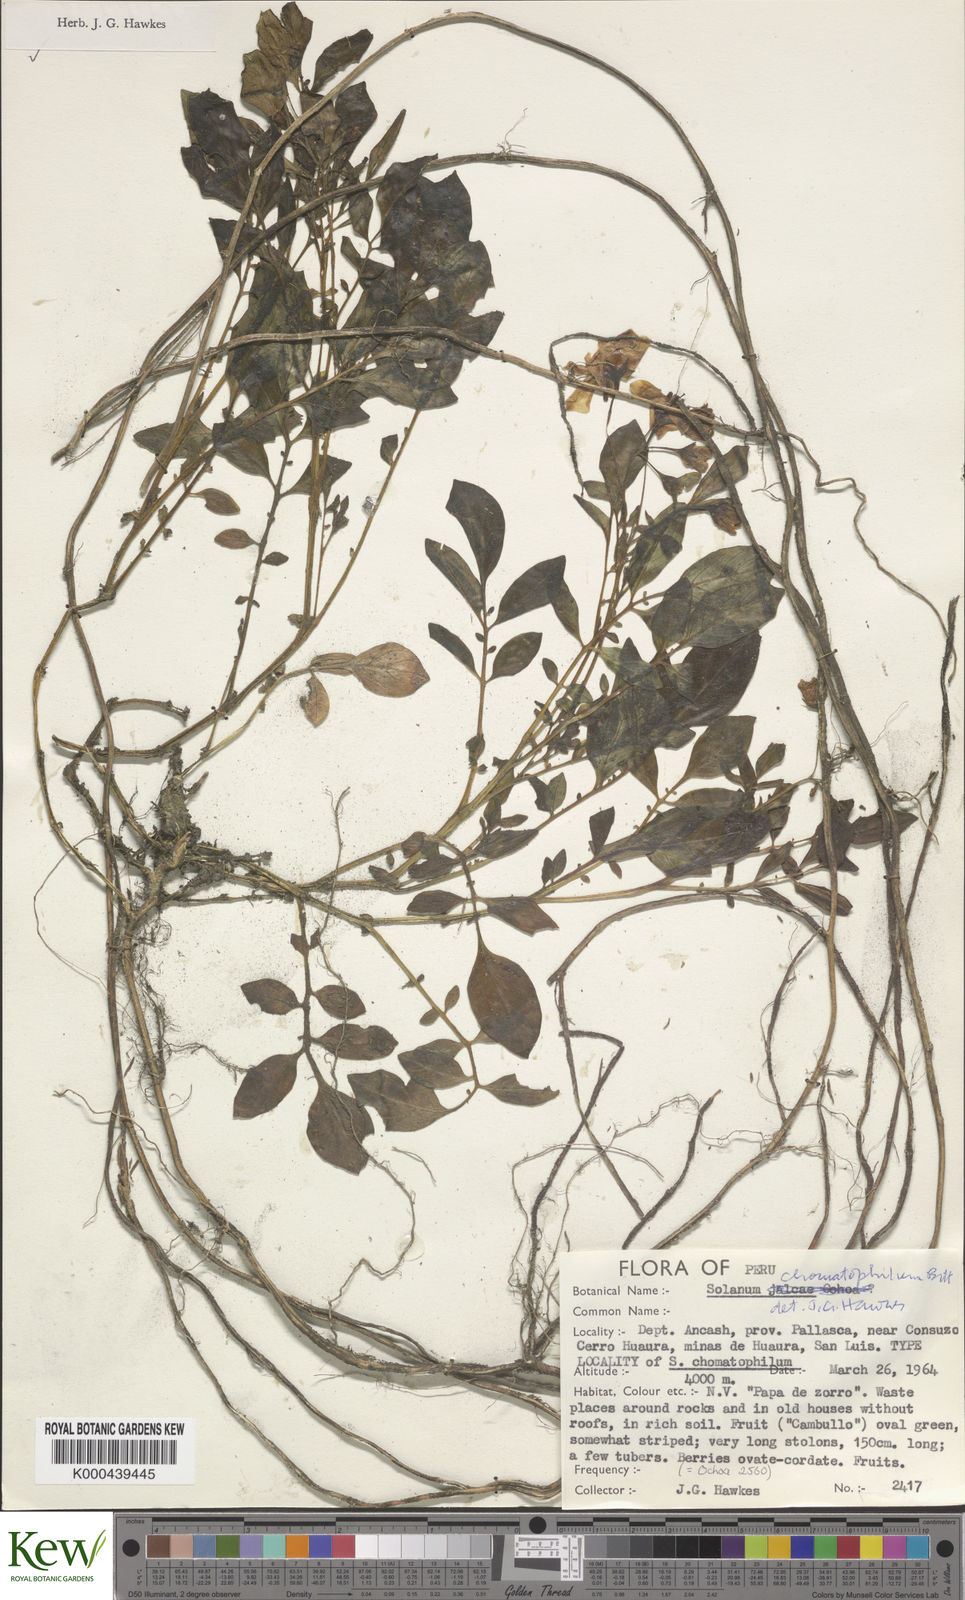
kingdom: Plantae
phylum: Tracheophyta
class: Magnoliopsida
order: Solanales
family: Solanaceae
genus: Solanum
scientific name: Solanum chomatophilum
